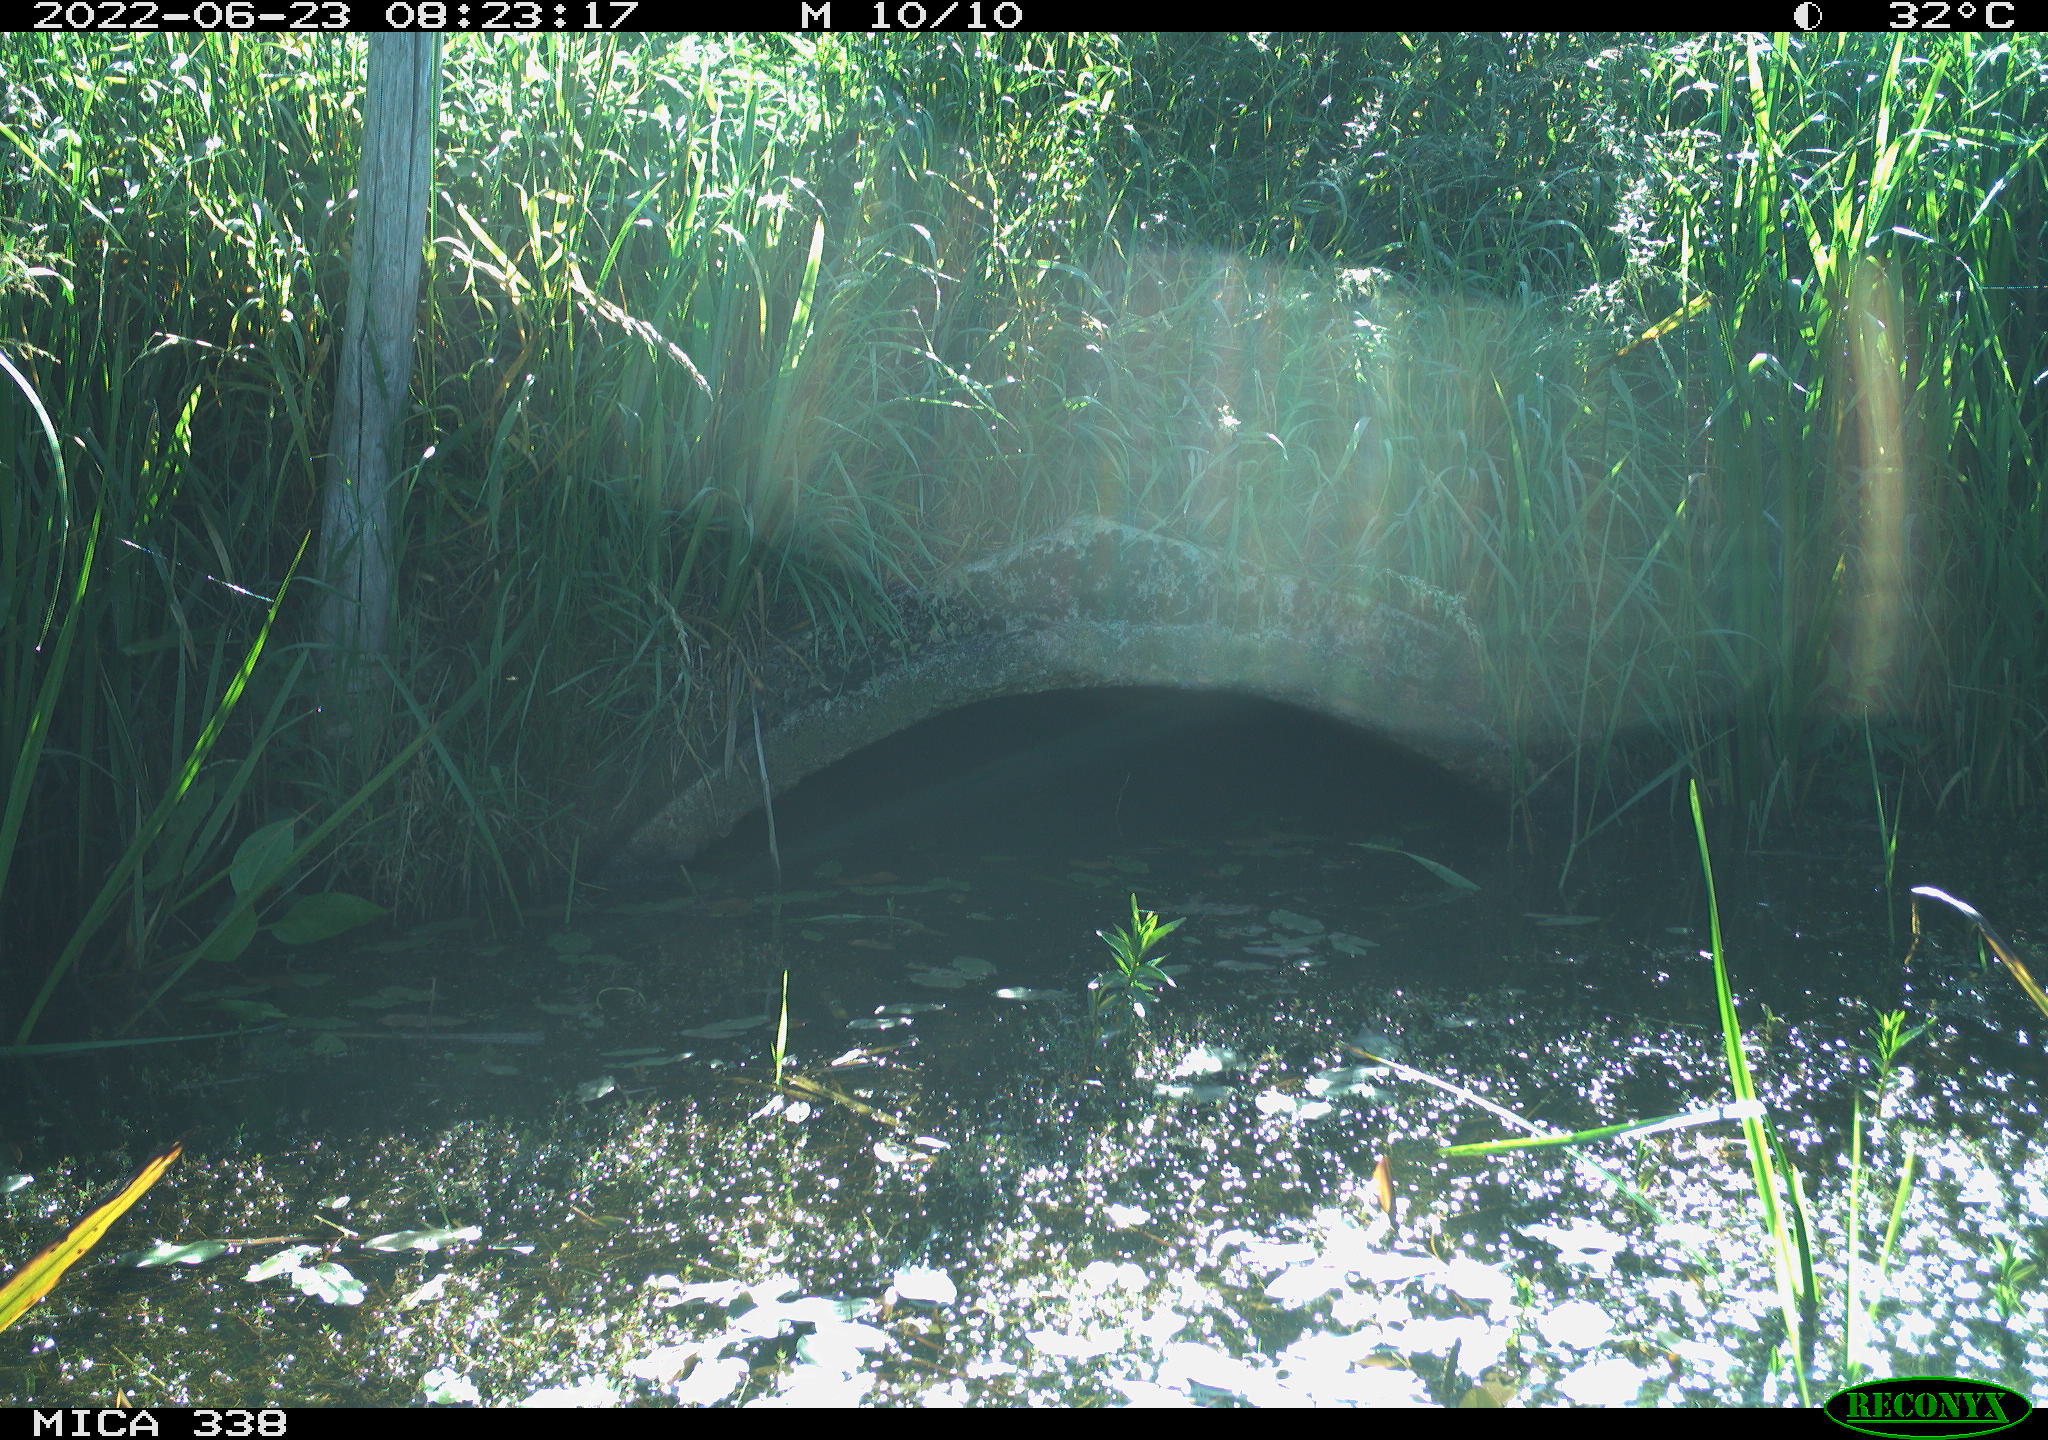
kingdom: Animalia
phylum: Chordata
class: Aves
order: Anseriformes
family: Anatidae
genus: Anas
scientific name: Anas platyrhynchos
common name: Mallard
